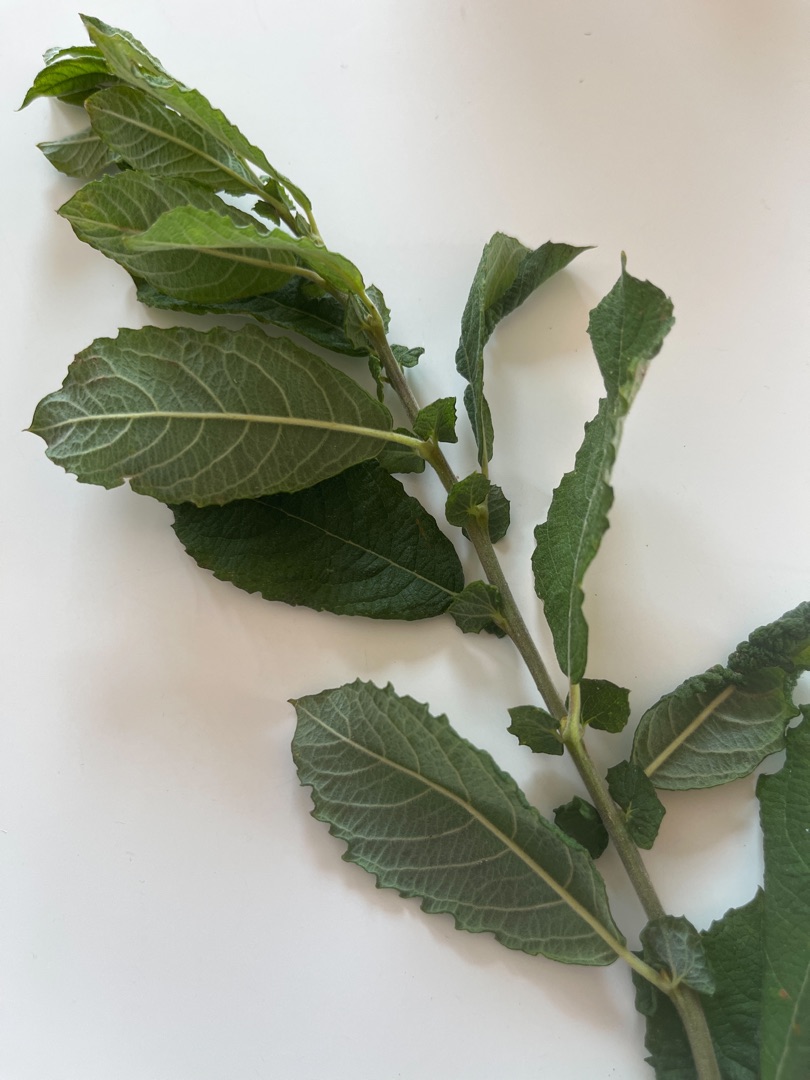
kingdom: Plantae
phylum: Tracheophyta
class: Magnoliopsida
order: Malpighiales
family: Salicaceae
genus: Salix
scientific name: Salix cinerea
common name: Grå-pil
